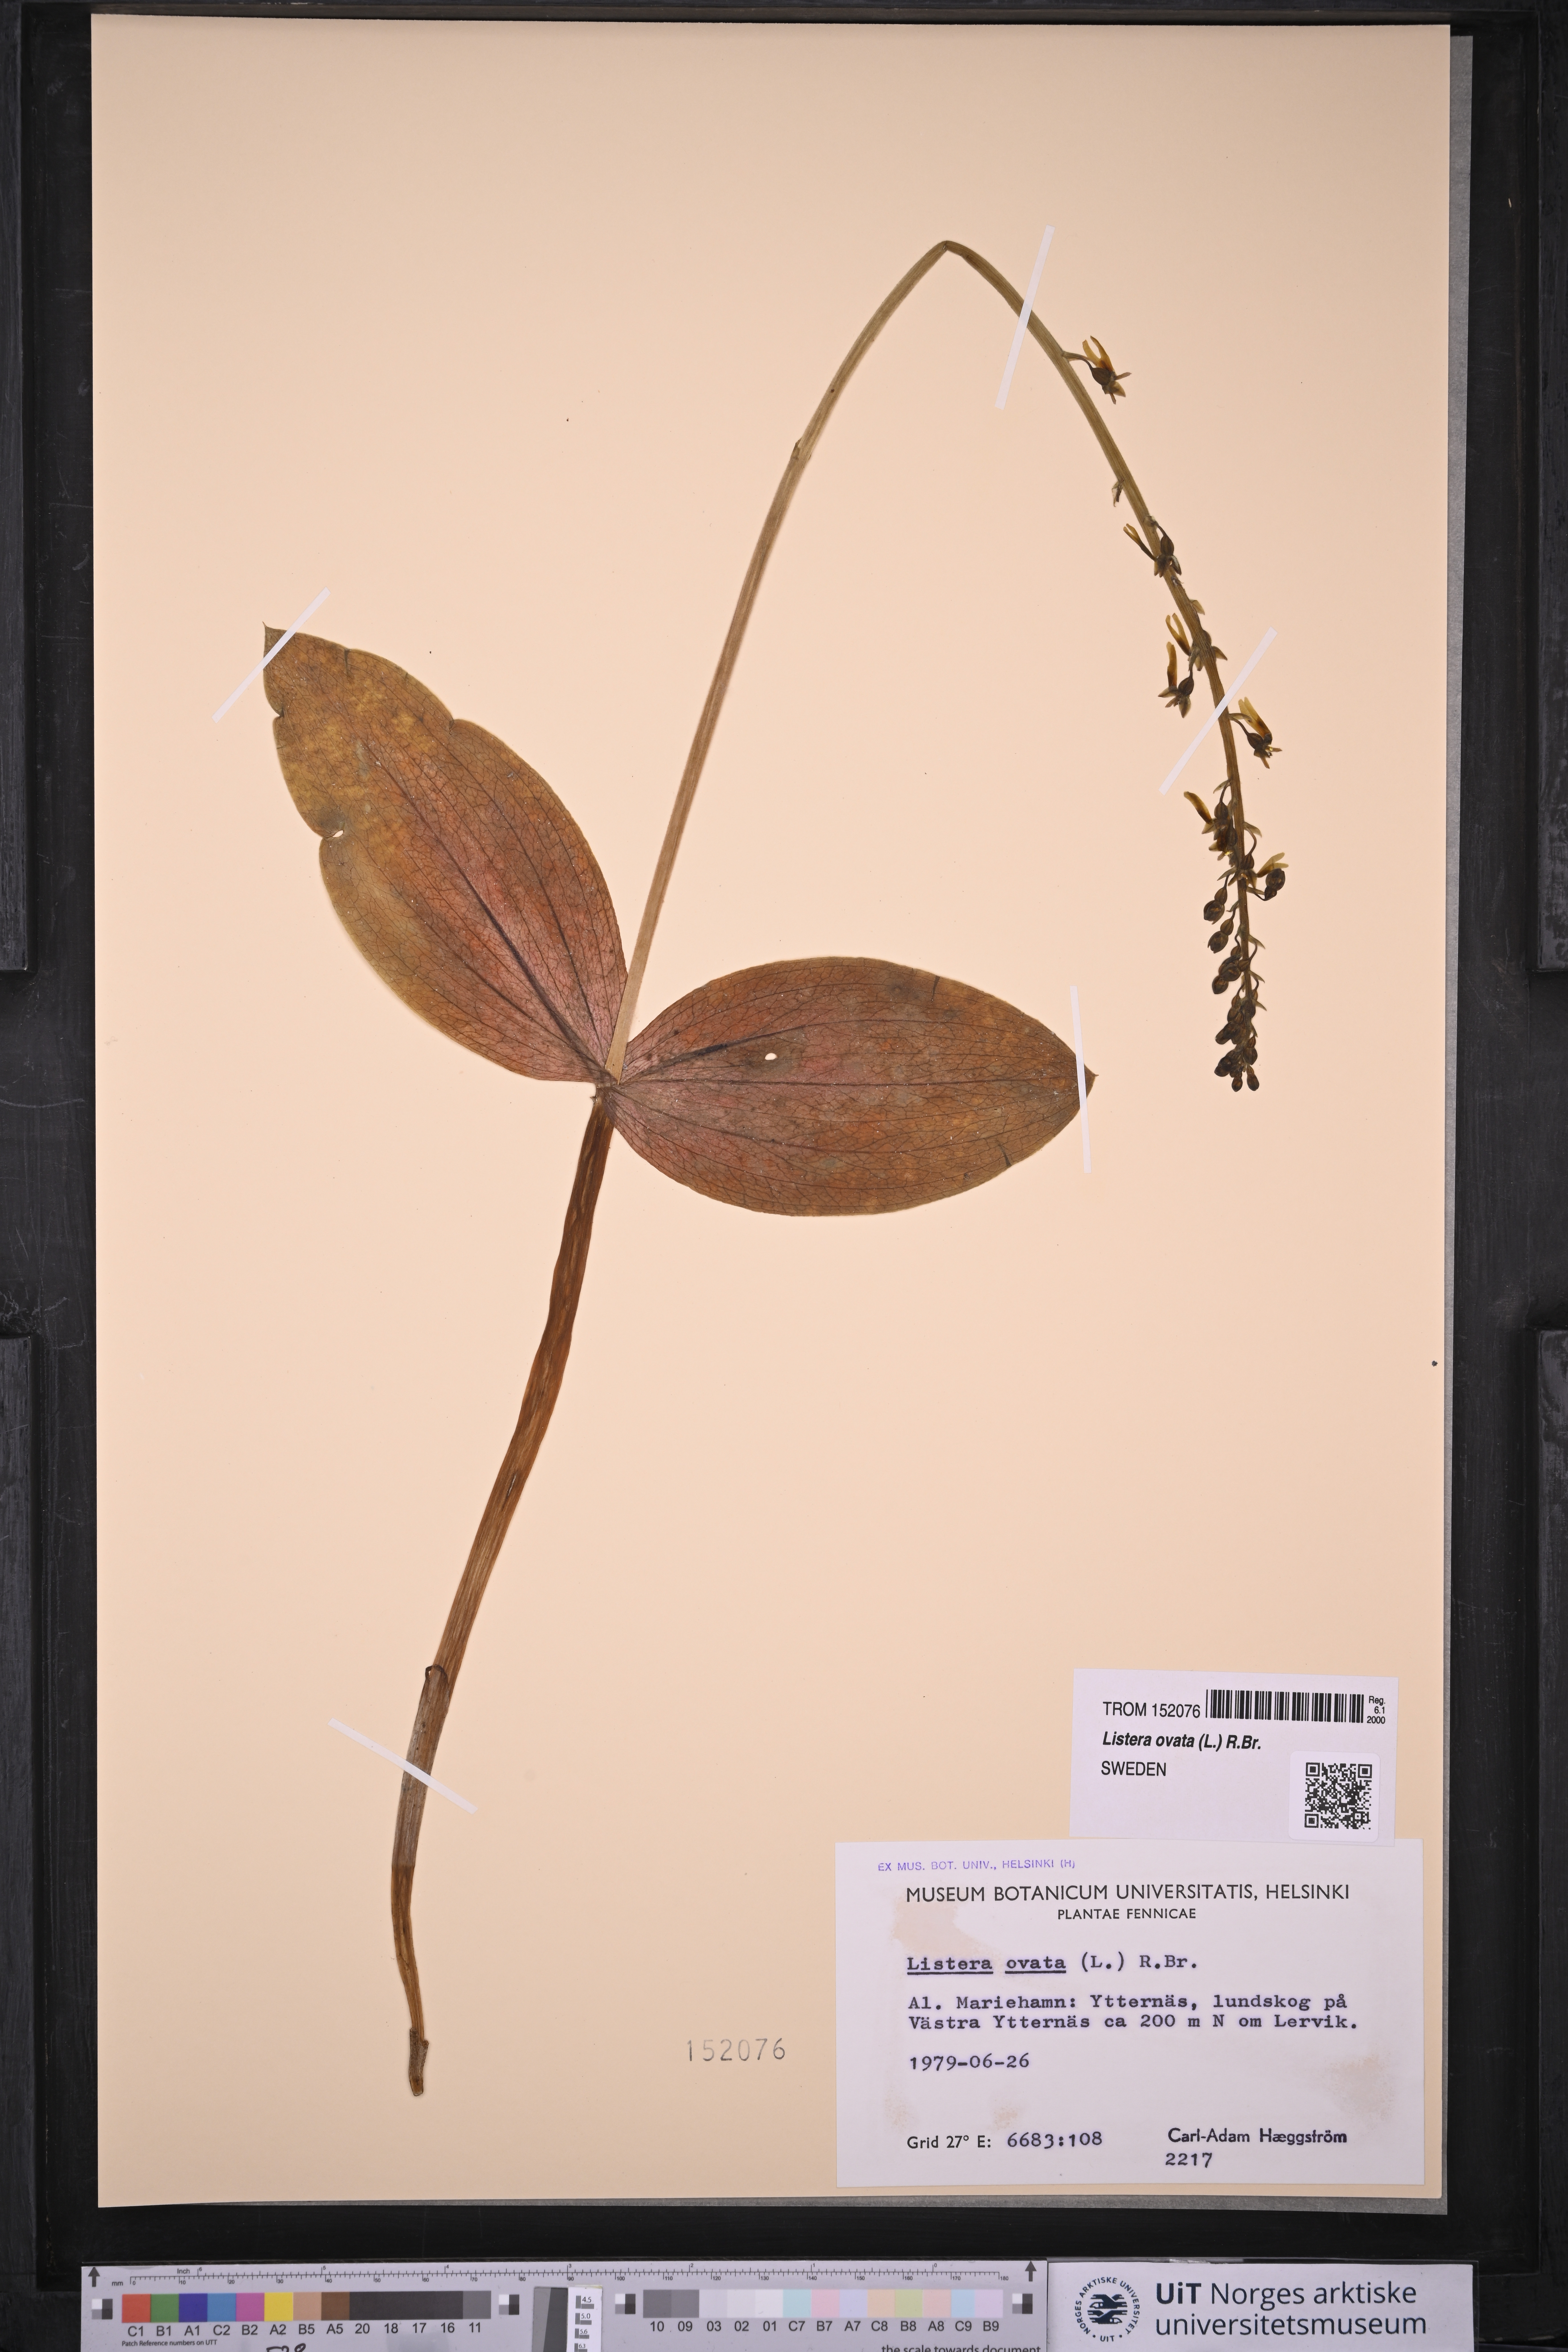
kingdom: Plantae
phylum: Tracheophyta
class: Liliopsida
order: Asparagales
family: Orchidaceae
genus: Neottia
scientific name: Neottia ovata
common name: Common twayblade
